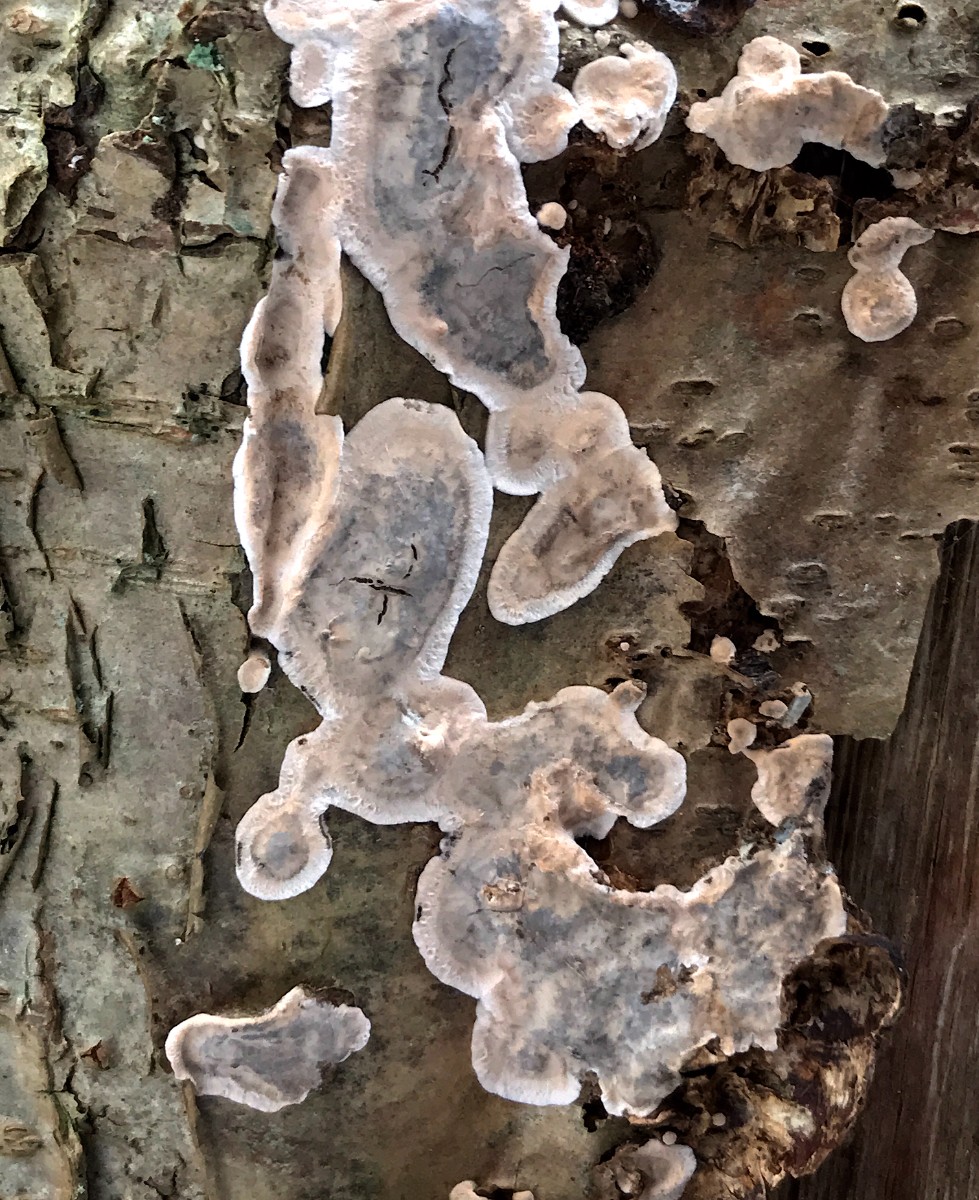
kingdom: Fungi
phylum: Basidiomycota
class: Agaricomycetes
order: Russulales
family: Stereaceae
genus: Stereum
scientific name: Stereum rugosum
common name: rynket lædersvamp
